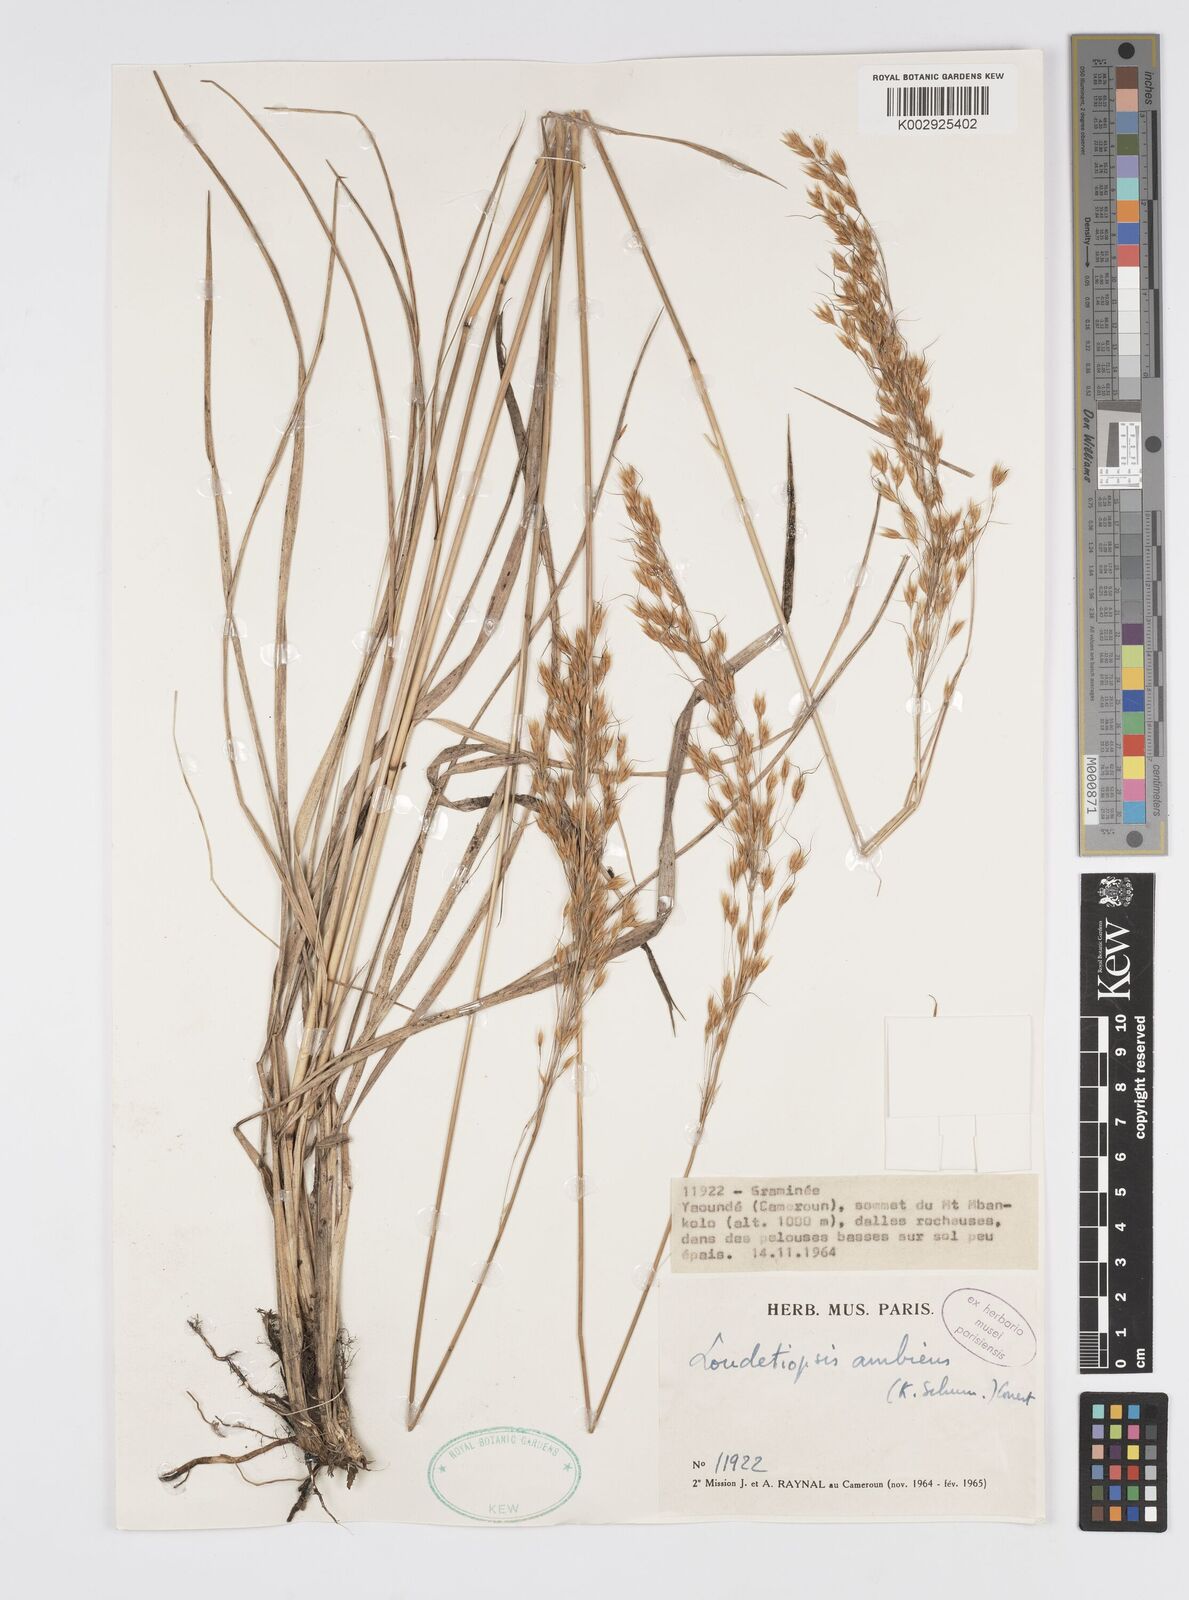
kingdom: Plantae
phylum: Tracheophyta
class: Liliopsida
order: Poales
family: Poaceae
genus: Loudetiopsis
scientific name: Loudetiopsis ambiens
